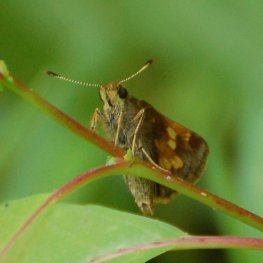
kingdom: Animalia
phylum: Arthropoda
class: Insecta
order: Lepidoptera
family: Hesperiidae
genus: Lon
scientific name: Lon hobomok
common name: Hobomok Skipper
